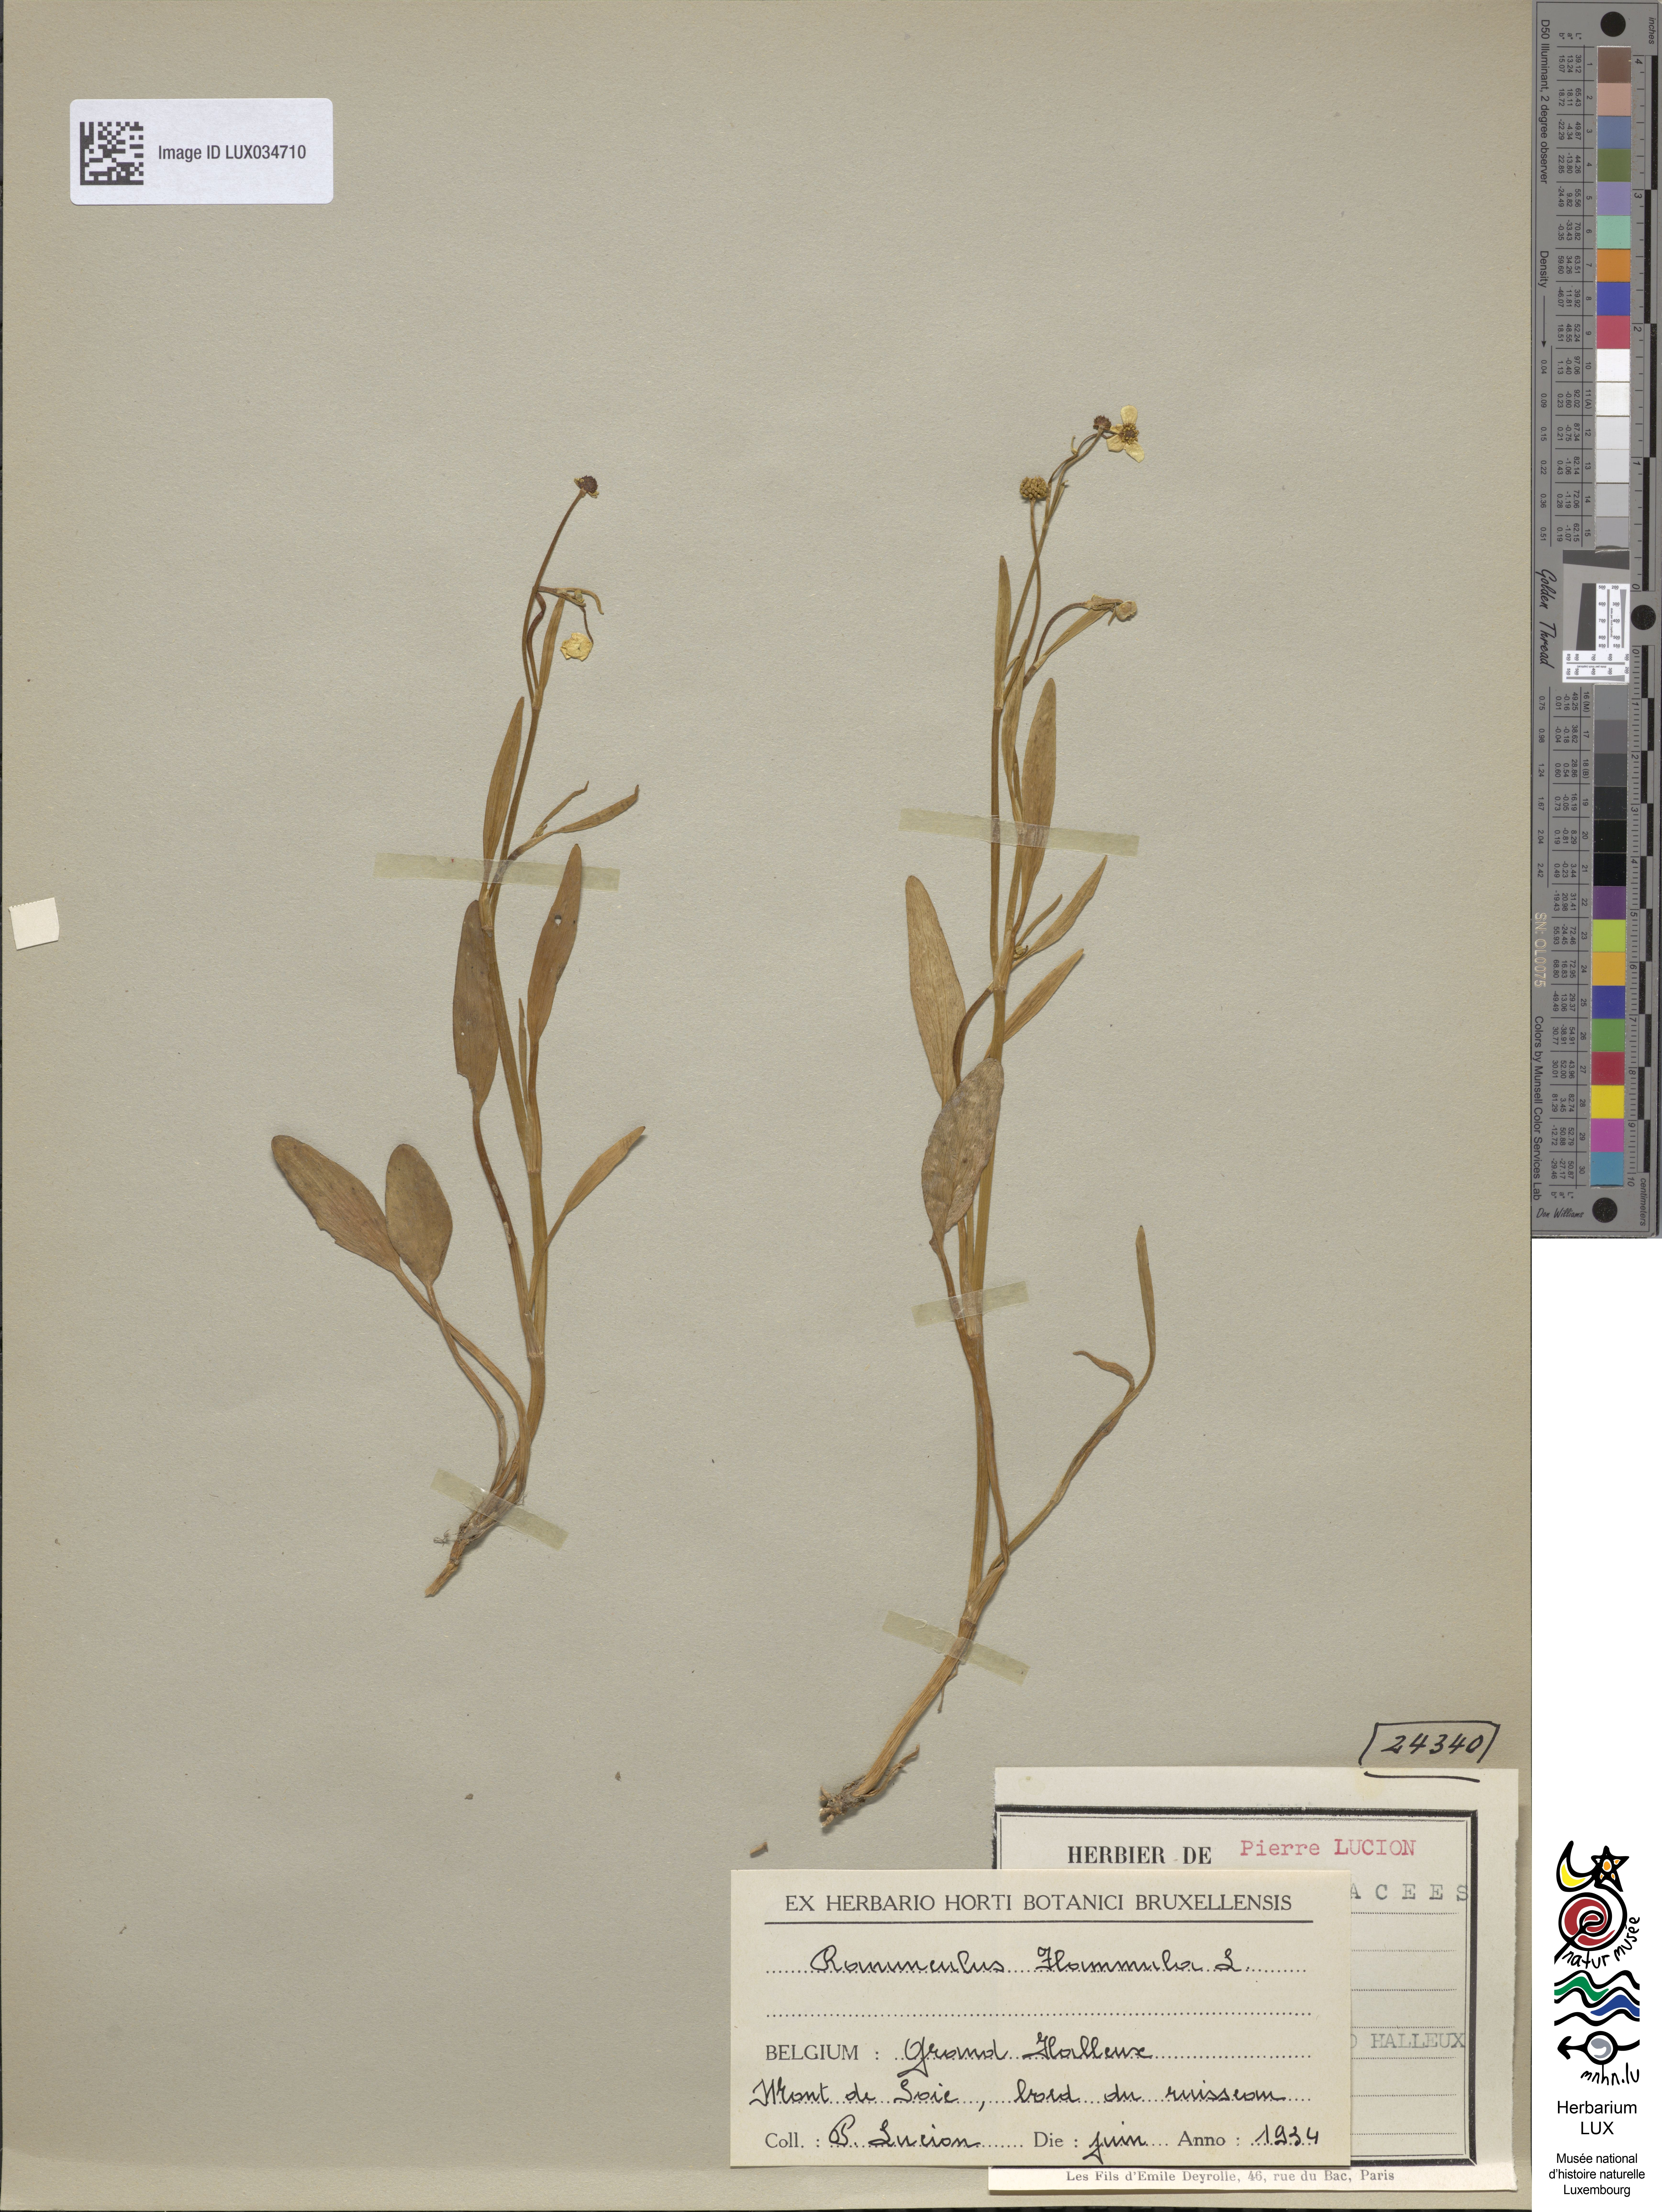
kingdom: Plantae
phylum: Tracheophyta
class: Magnoliopsida
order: Ranunculales
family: Ranunculaceae
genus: Ranunculus
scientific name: Ranunculus flammula
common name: Lesser spearwort
